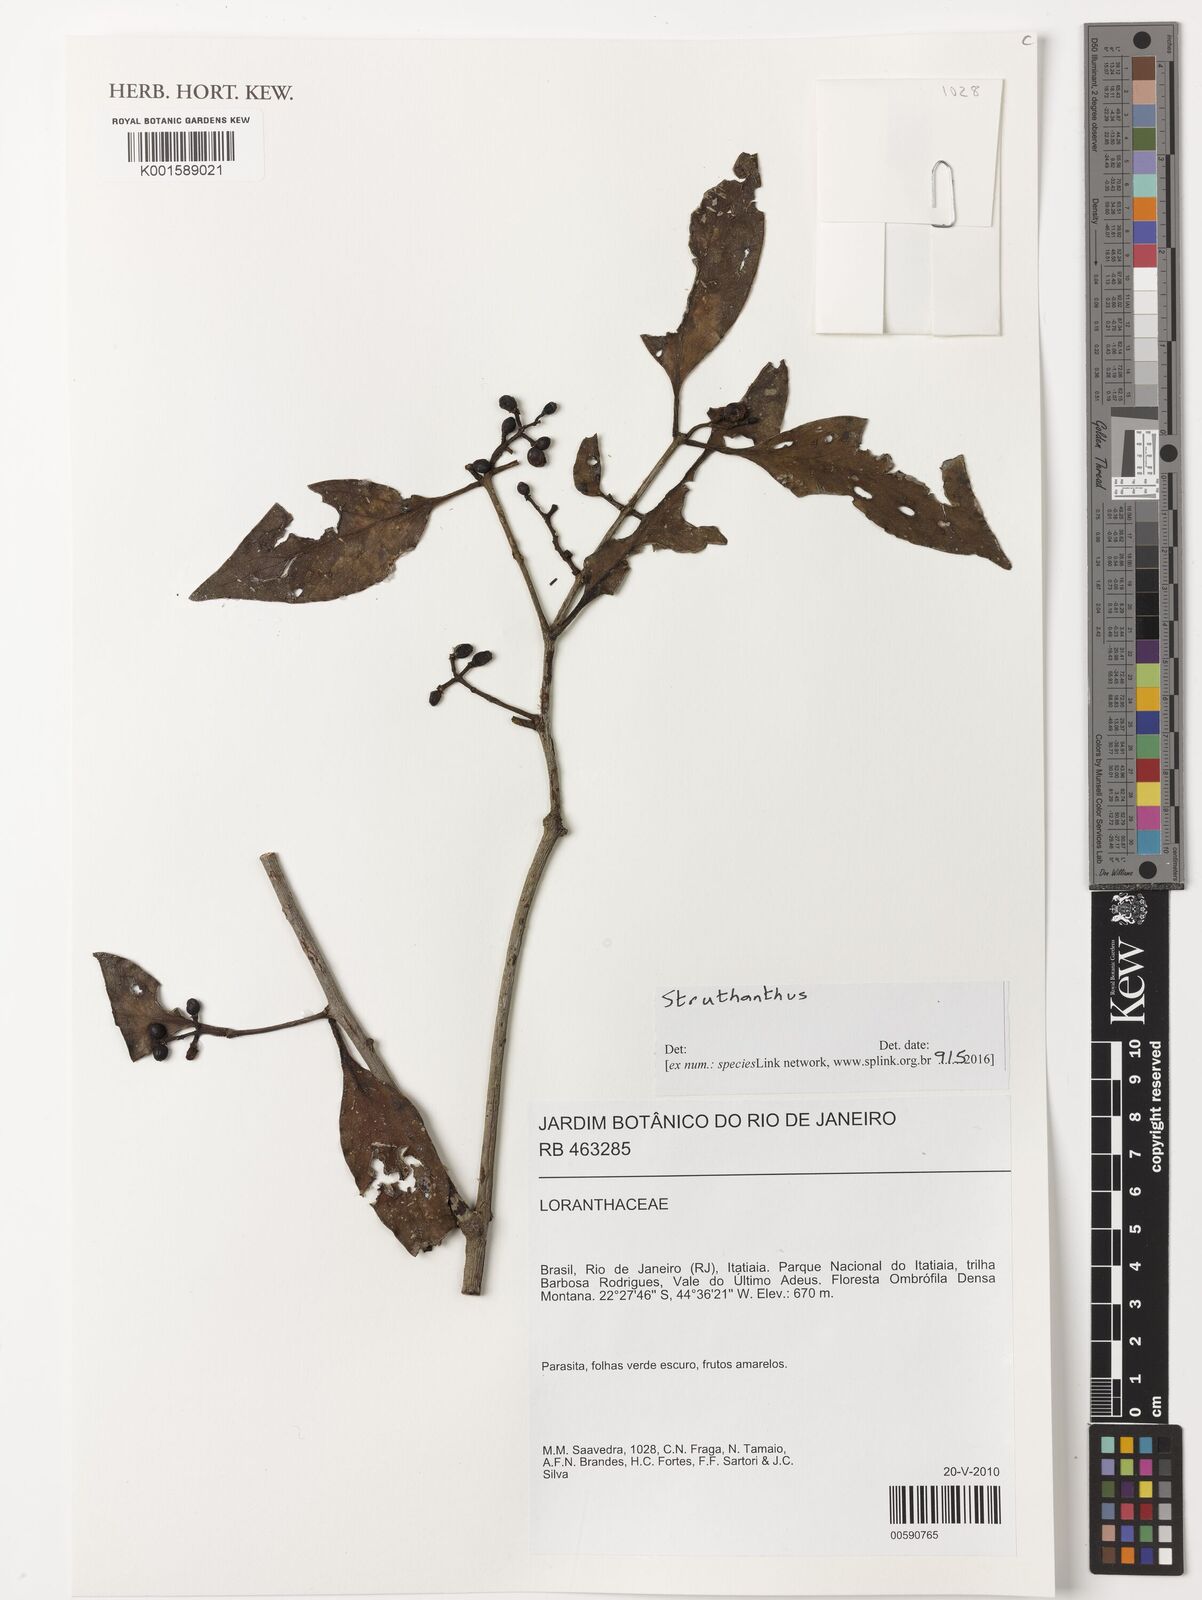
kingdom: Plantae
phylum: Tracheophyta
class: Magnoliopsida
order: Santalales
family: Loranthaceae
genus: Struthanthus
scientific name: Struthanthus
